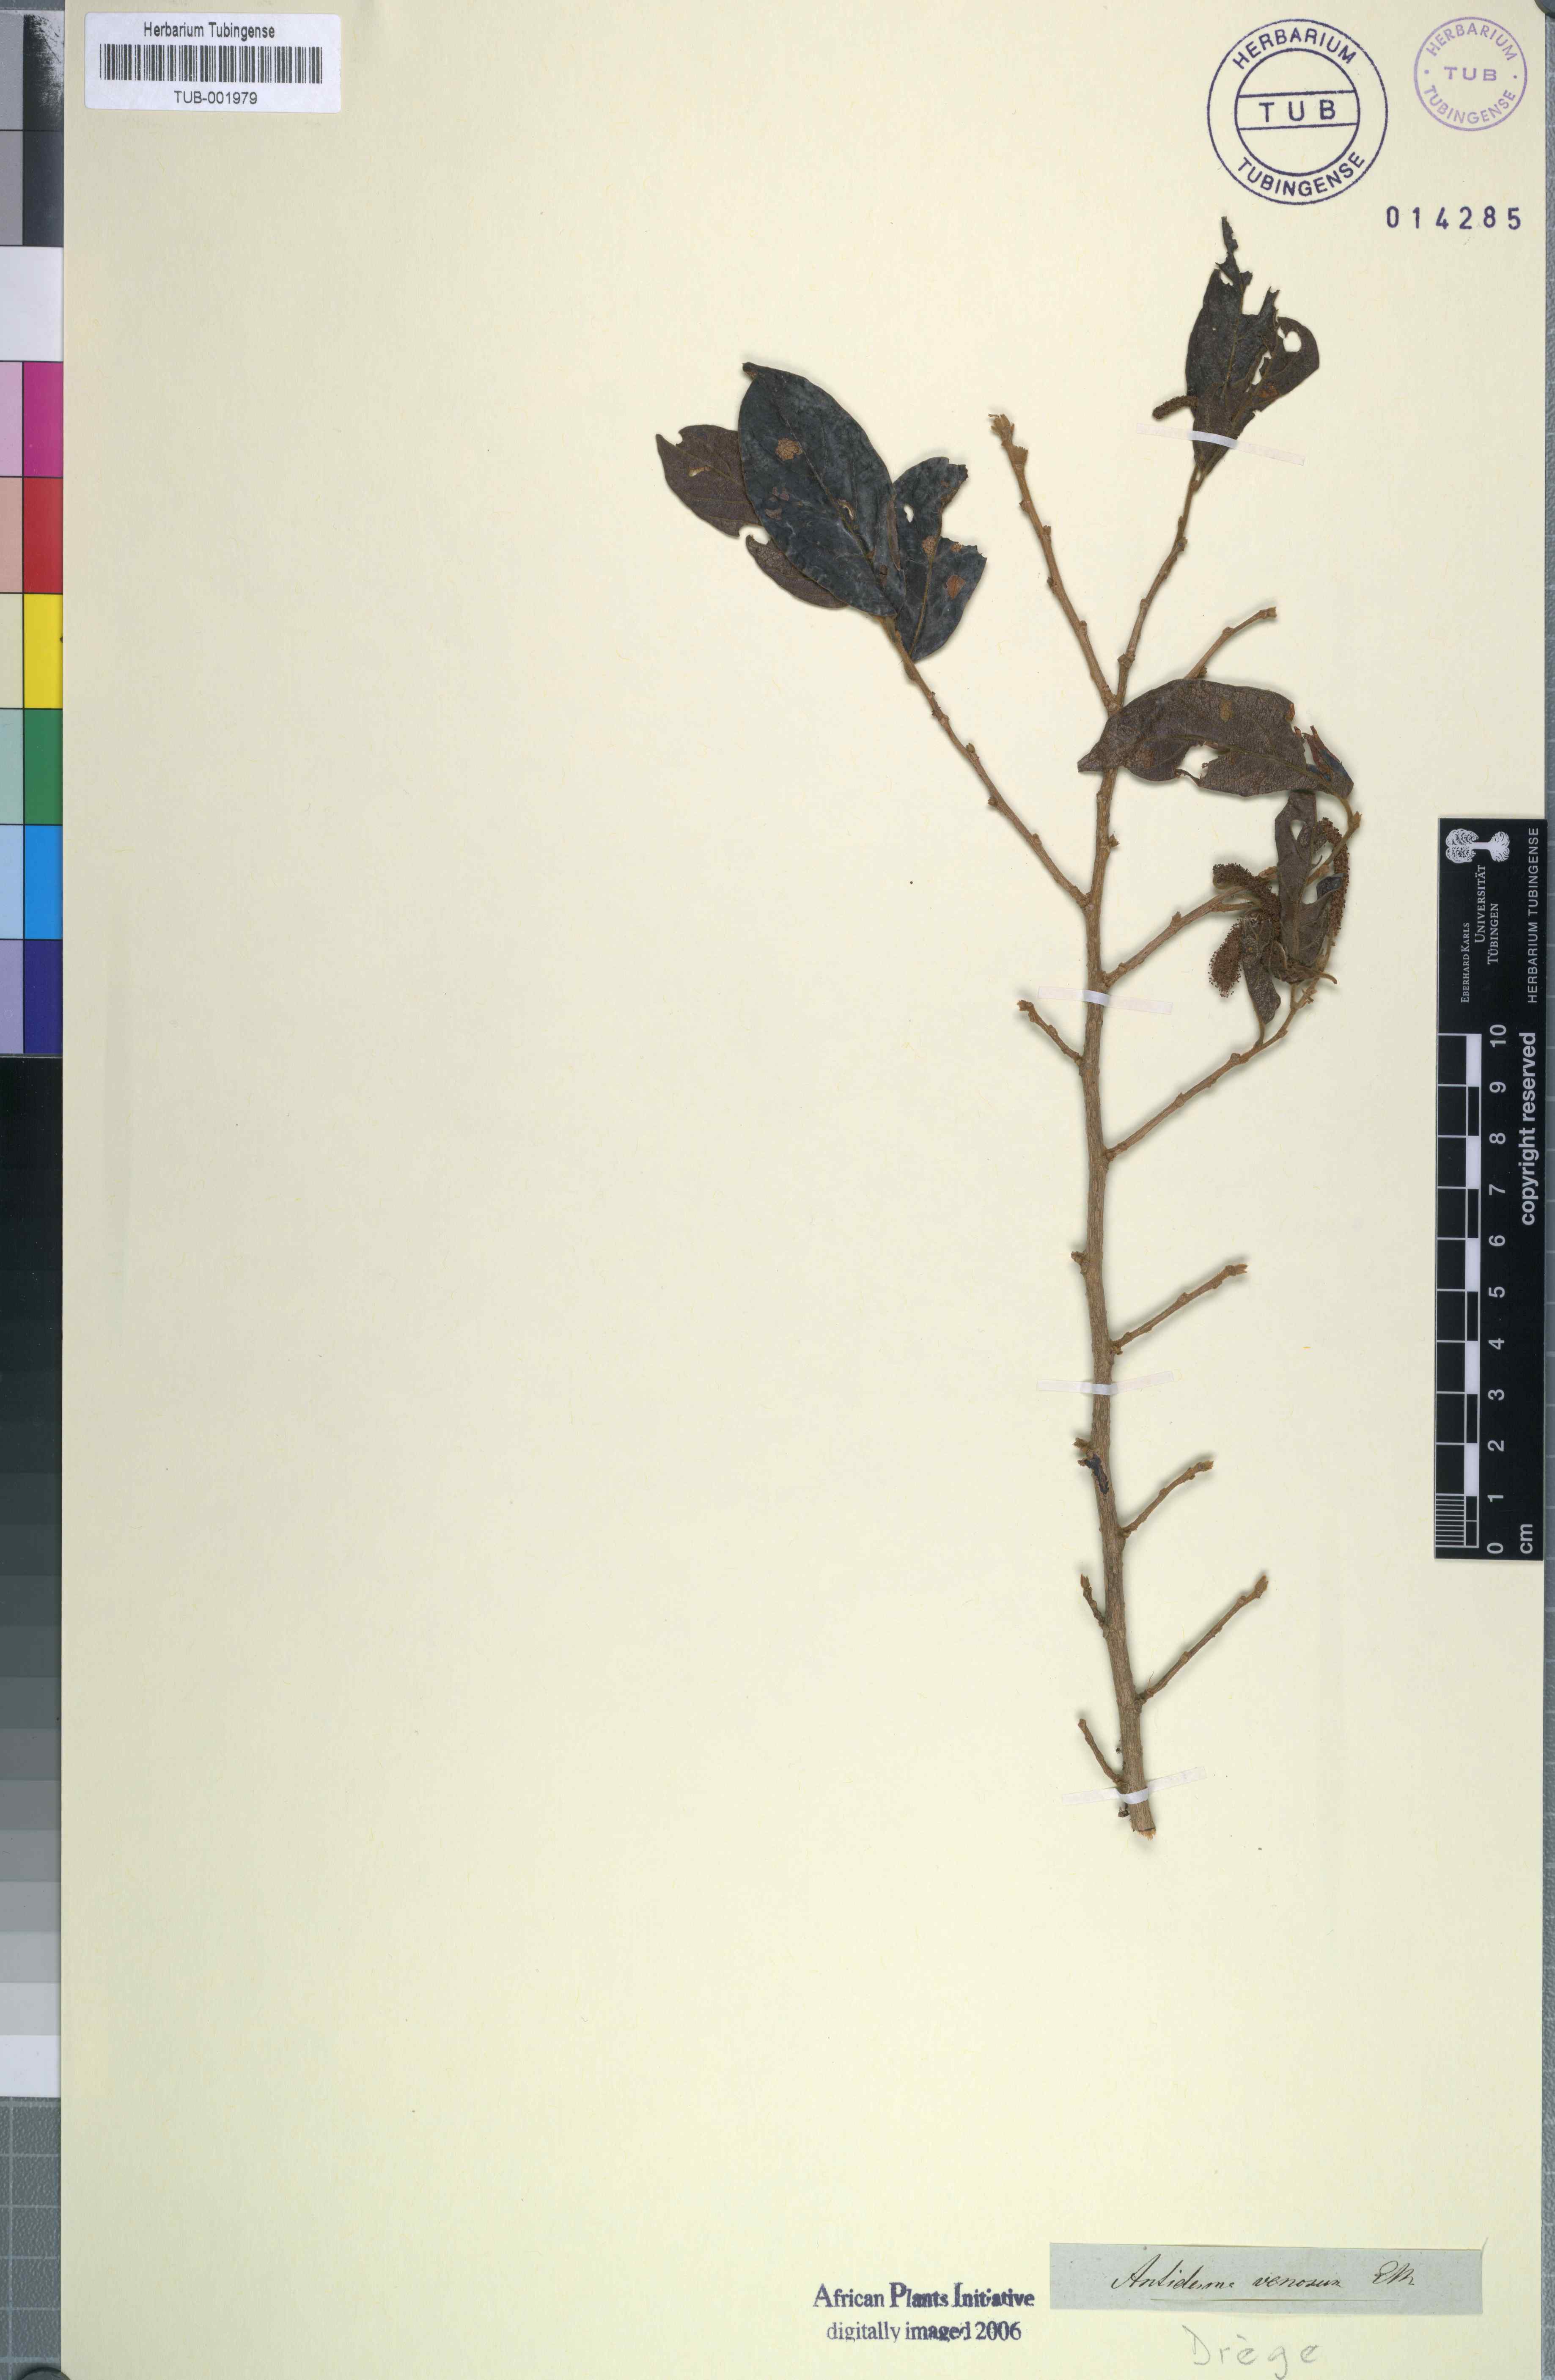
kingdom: Plantae
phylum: Tracheophyta
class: Magnoliopsida
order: Malpighiales
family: Phyllanthaceae
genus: Antidesma
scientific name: Antidesma venosum
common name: Tassel-berry
